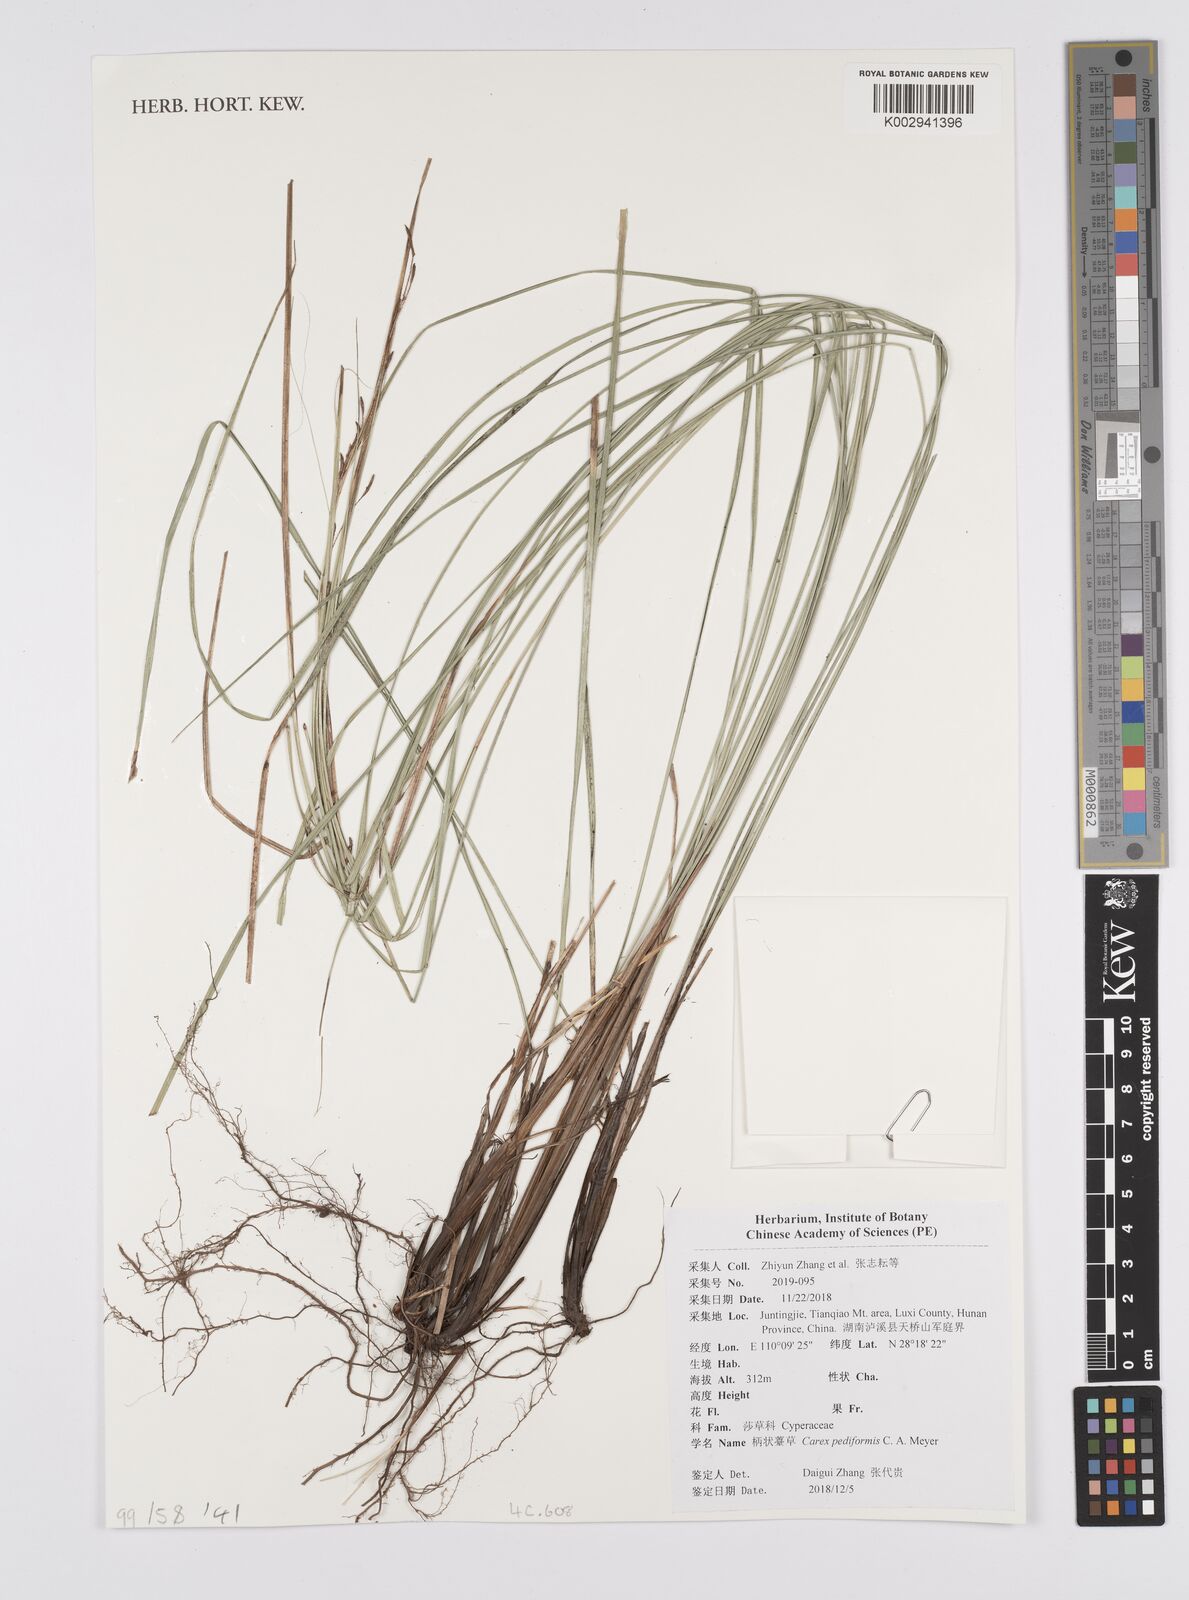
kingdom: Plantae
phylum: Tracheophyta
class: Liliopsida
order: Poales
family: Cyperaceae
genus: Carex
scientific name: Carex pediformis
